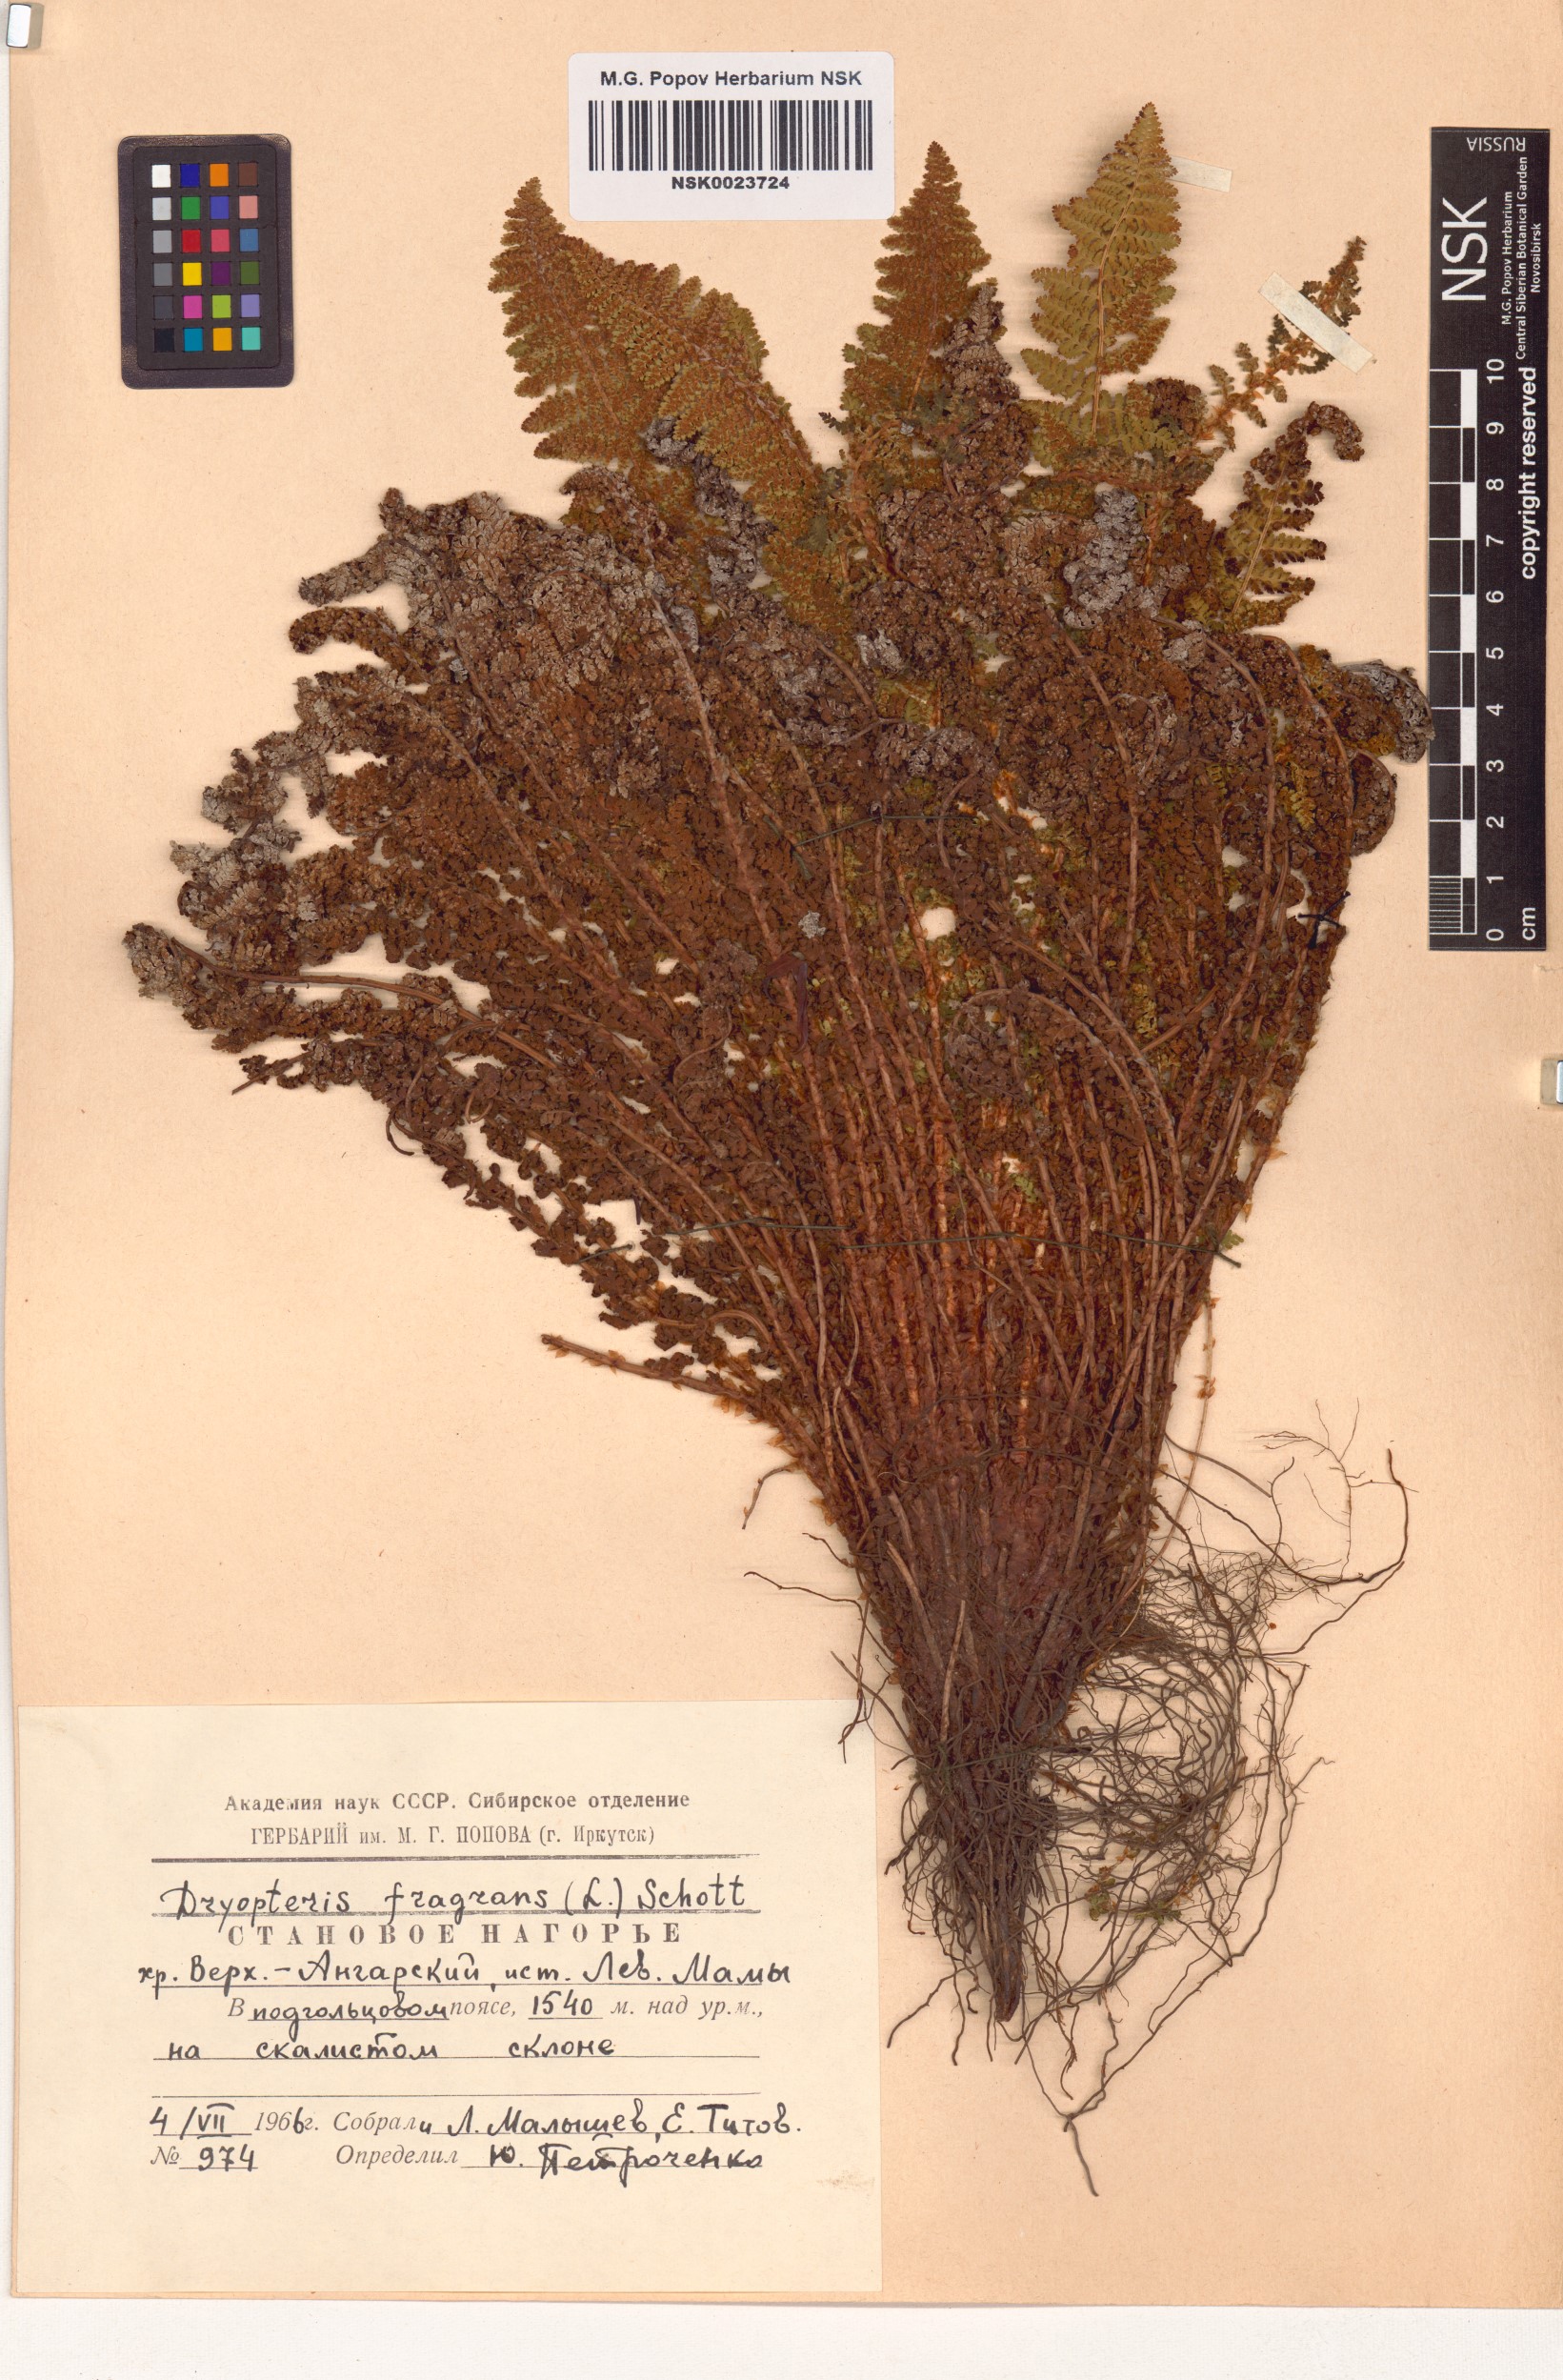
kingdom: Plantae
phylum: Tracheophyta
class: Polypodiopsida
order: Polypodiales
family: Dryopteridaceae
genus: Dryopteris
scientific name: Dryopteris fragrans
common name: Fragrant wood fern
